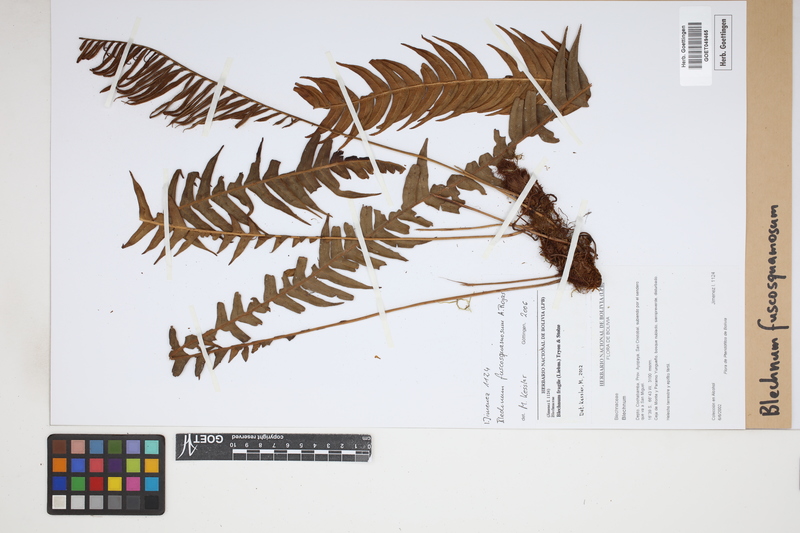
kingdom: Plantae
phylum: Tracheophyta
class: Polypodiopsida
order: Polypodiales
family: Blechnaceae
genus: Lomaridium
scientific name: Lomaridium fuscosquamosum
